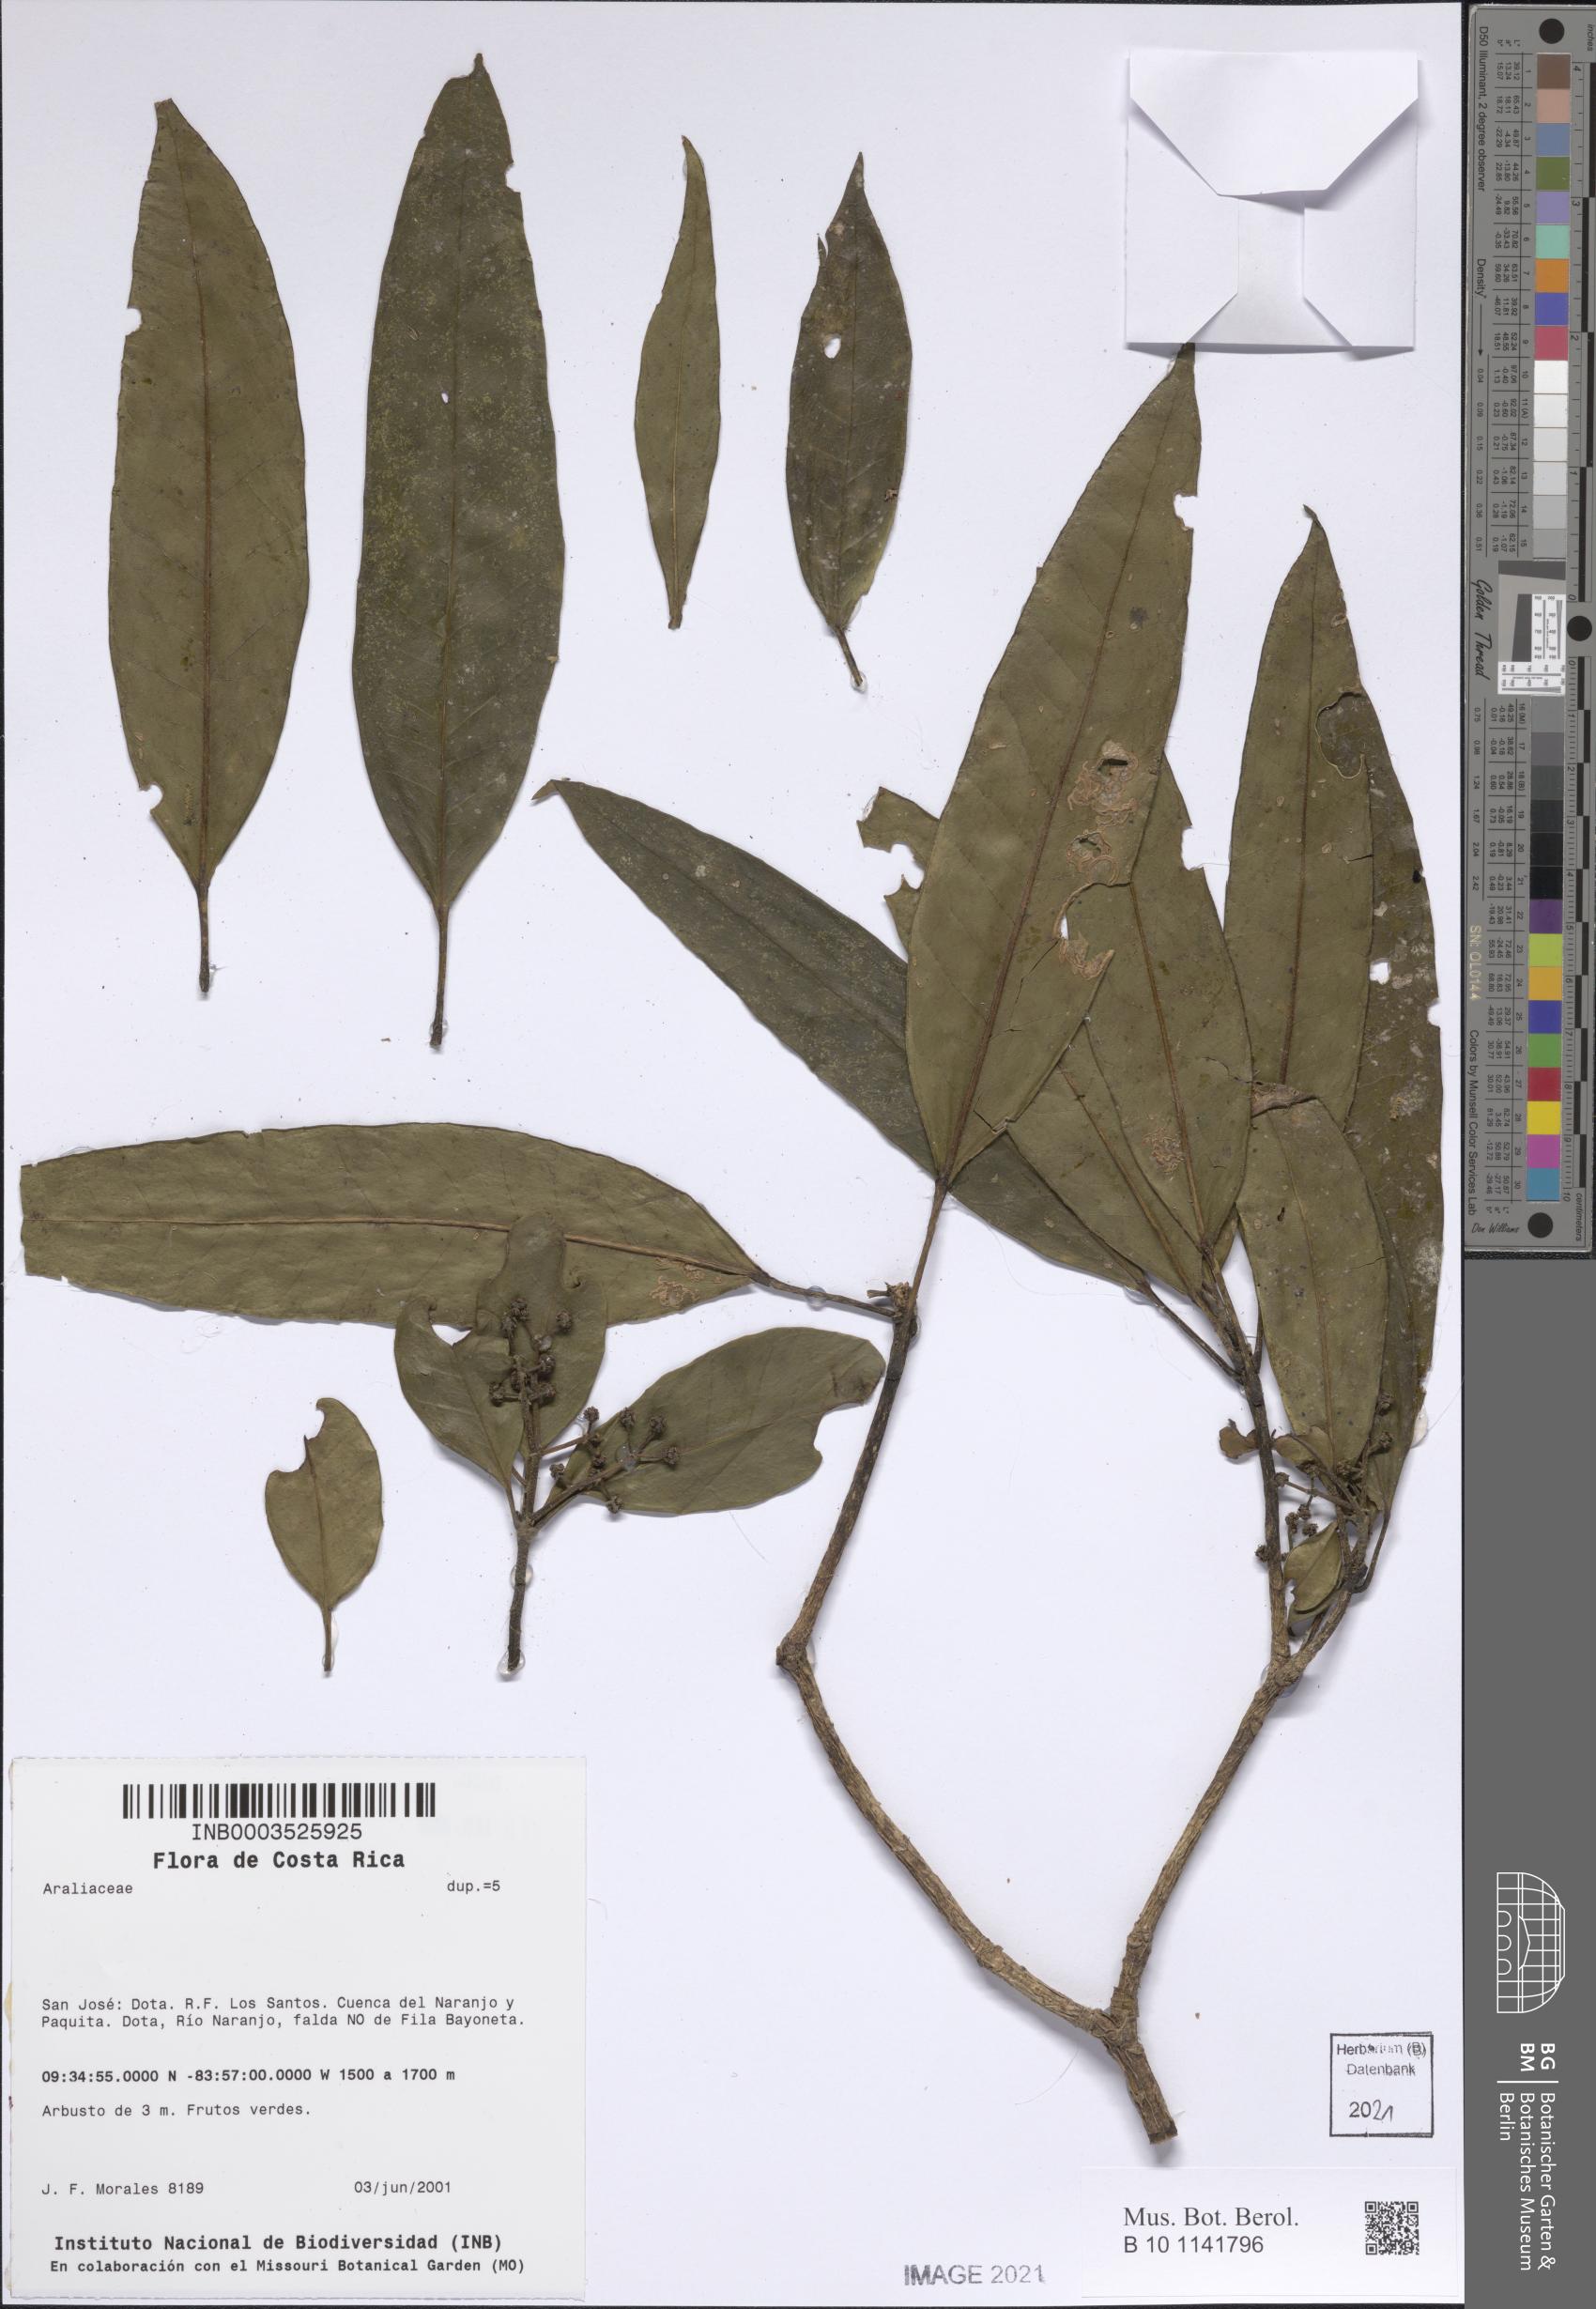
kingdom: Plantae
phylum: Tracheophyta
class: Magnoliopsida
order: Apiales
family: Araliaceae
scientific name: Araliaceae
